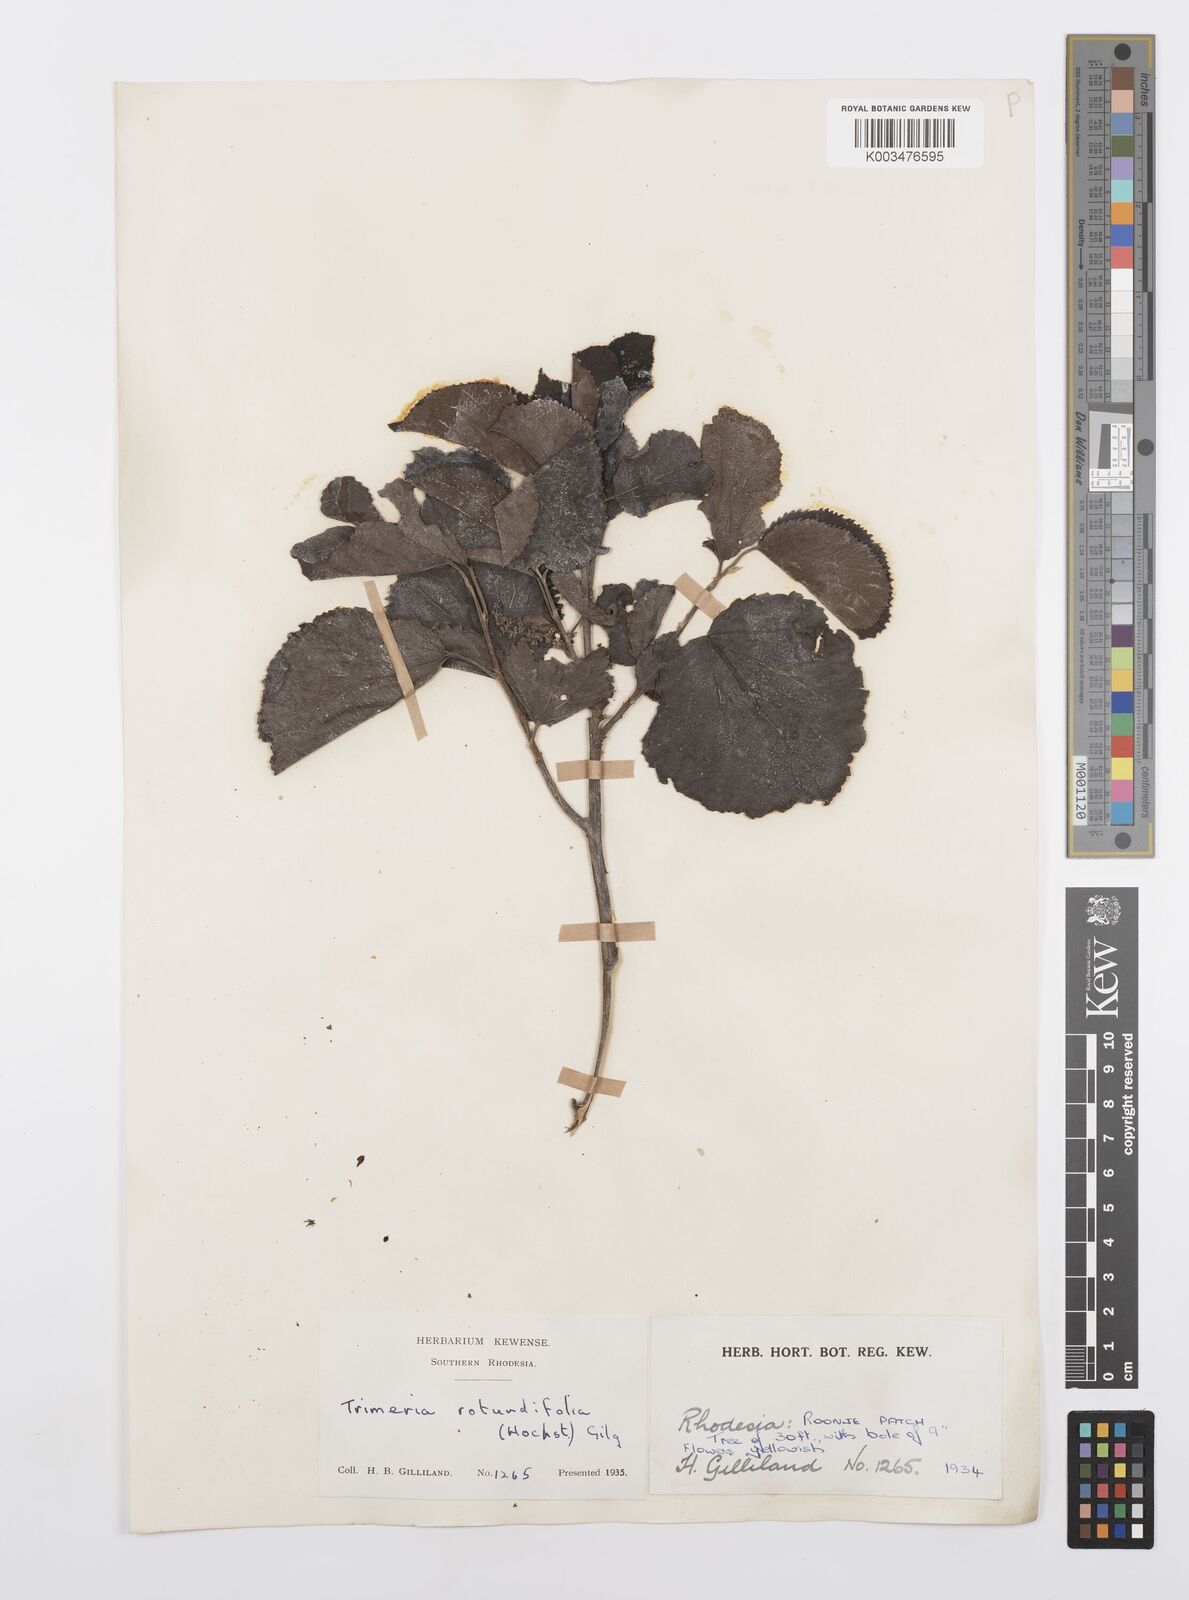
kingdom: Plantae
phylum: Tracheophyta
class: Magnoliopsida
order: Malpighiales
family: Salicaceae
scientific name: Salicaceae
